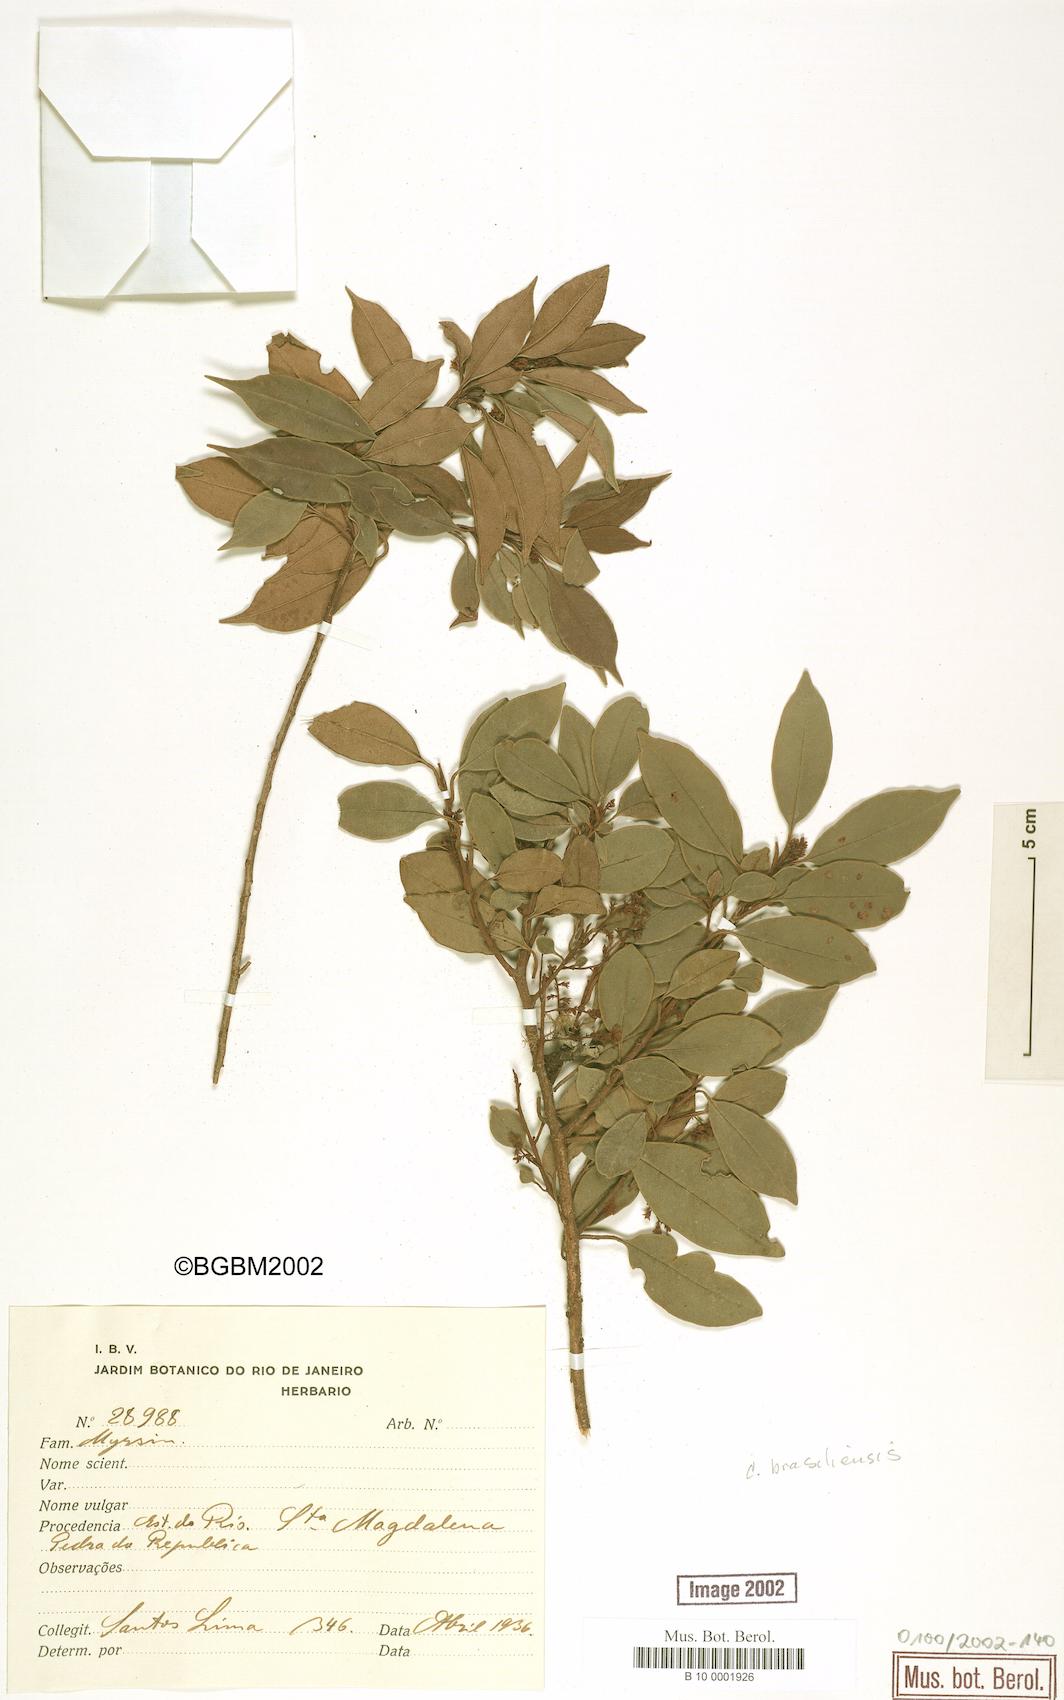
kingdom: Plantae
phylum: Tracheophyta
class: Magnoliopsida
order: Ericales
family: Primulaceae
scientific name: Primulaceae
